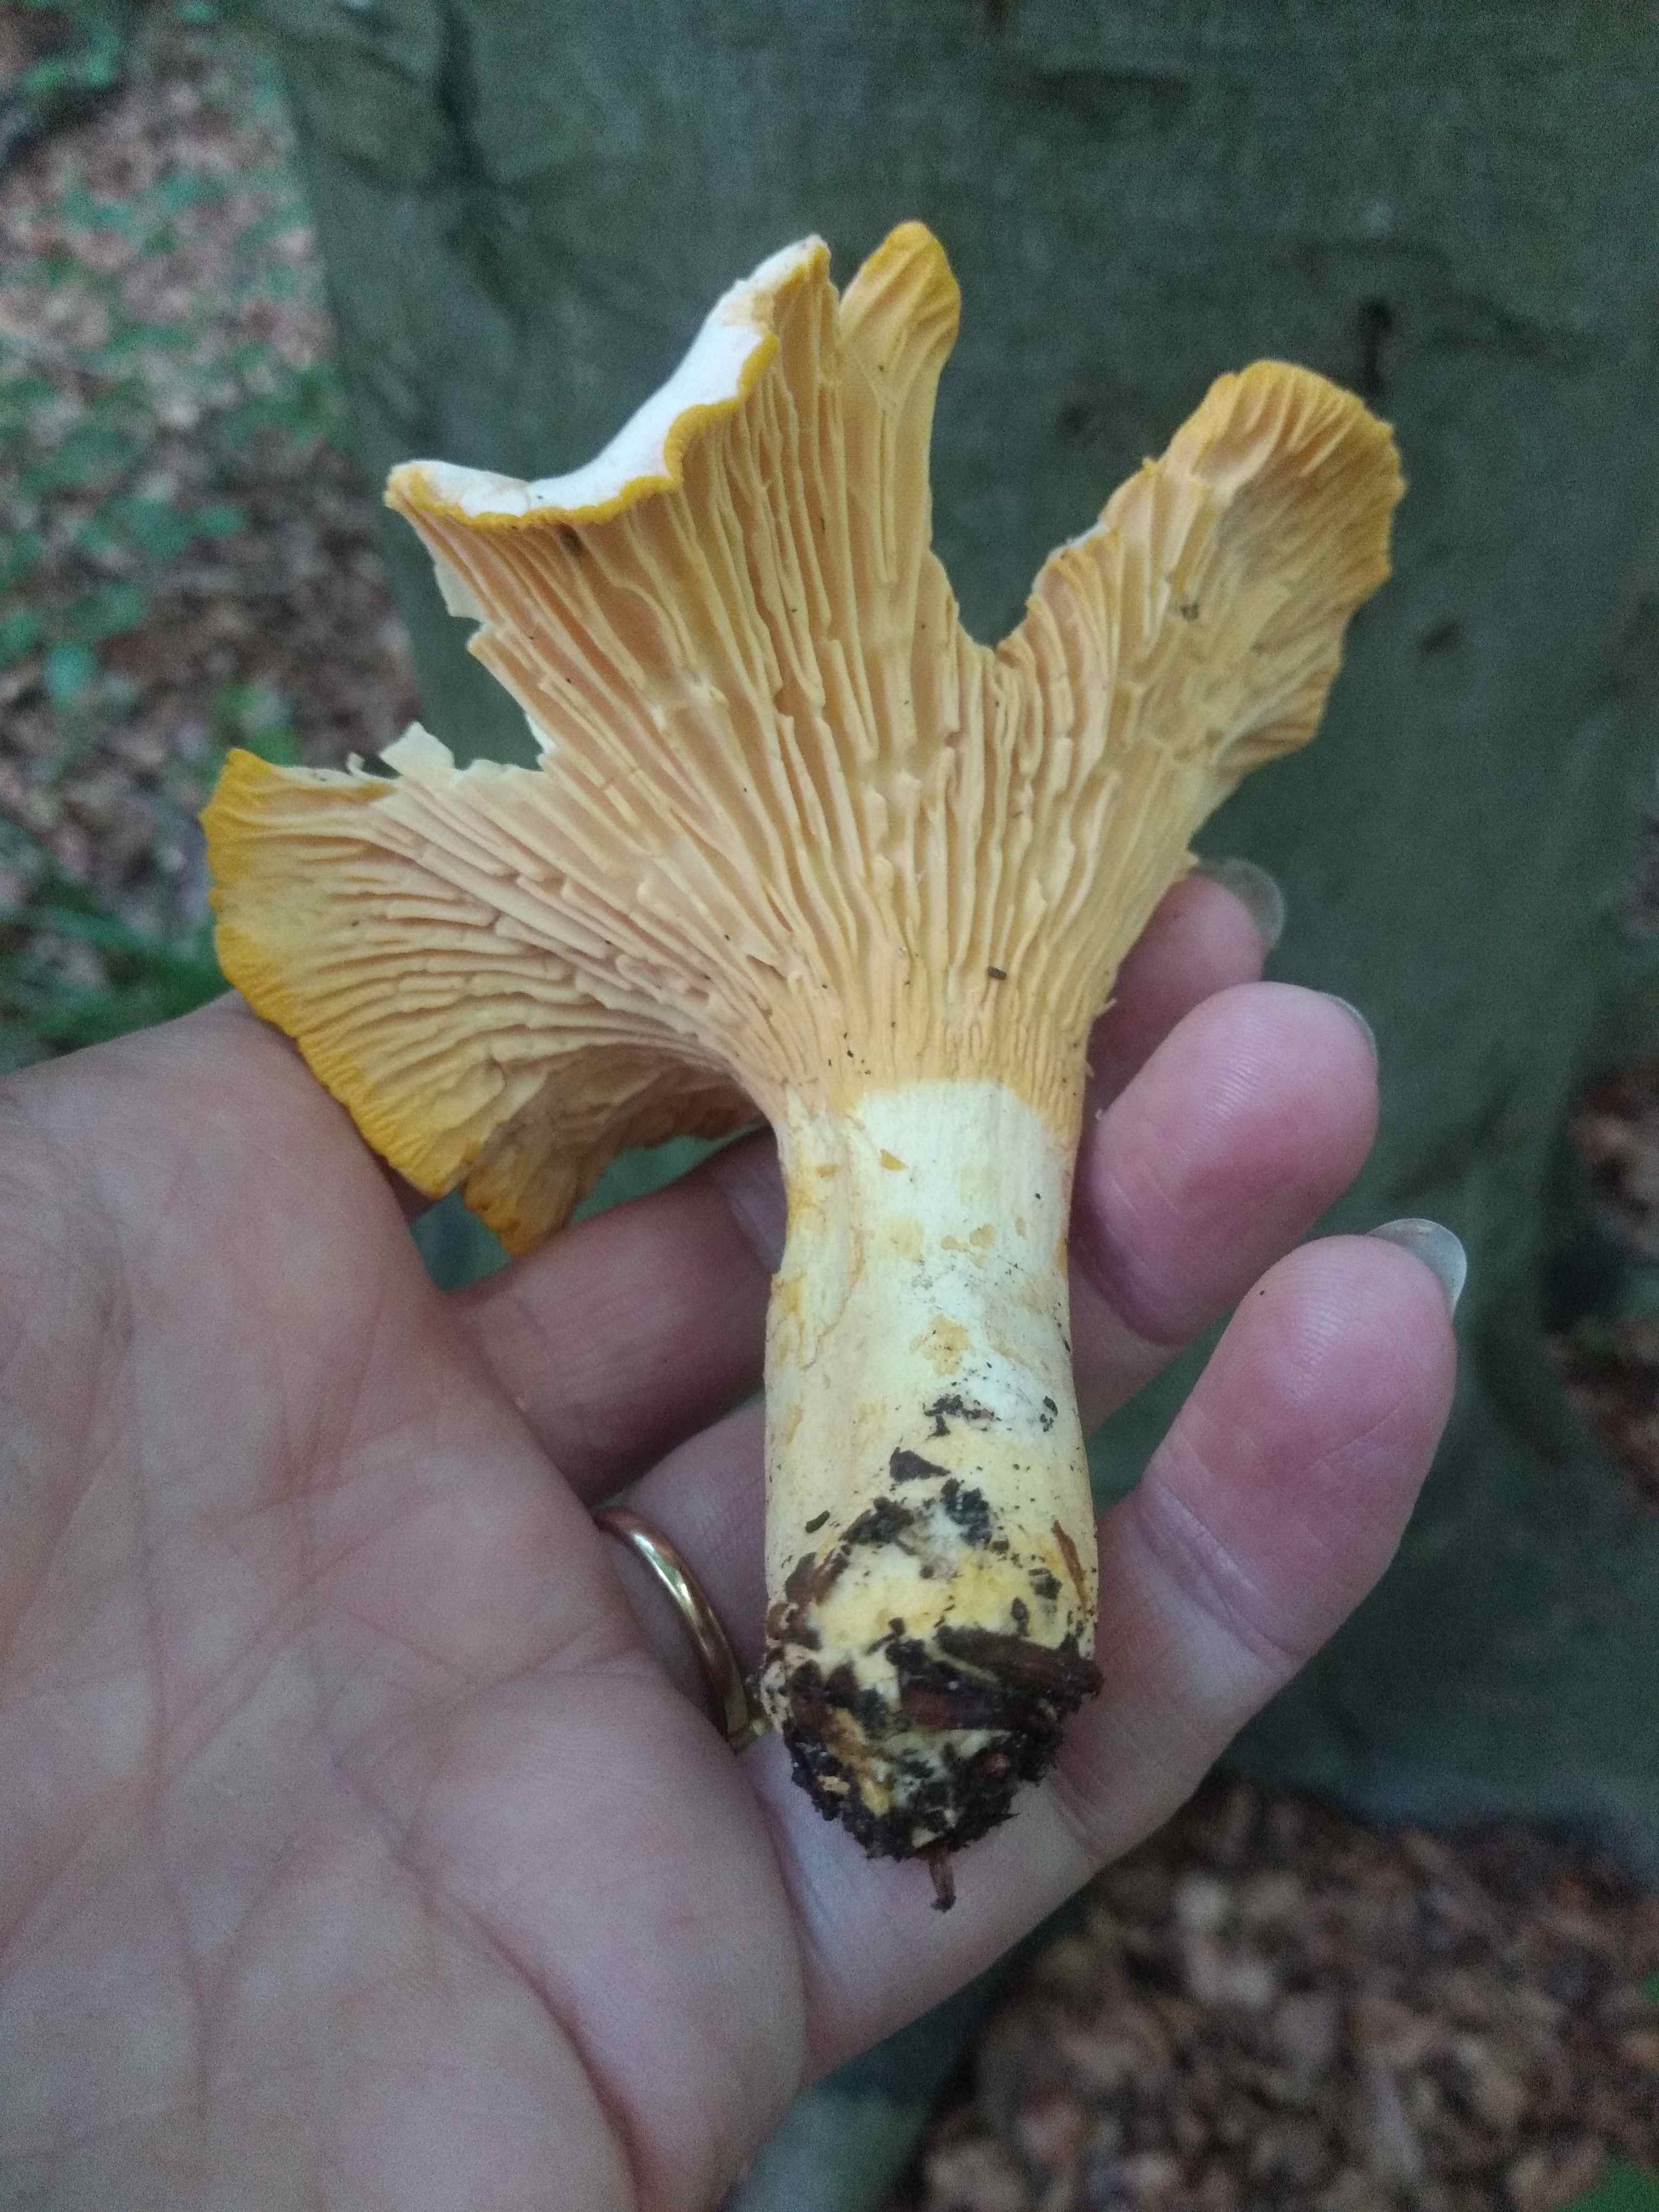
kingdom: Fungi
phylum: Basidiomycota
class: Agaricomycetes
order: Cantharellales
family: Hydnaceae
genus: Cantharellus
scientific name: Cantharellus pallens
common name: bleg kantarel
